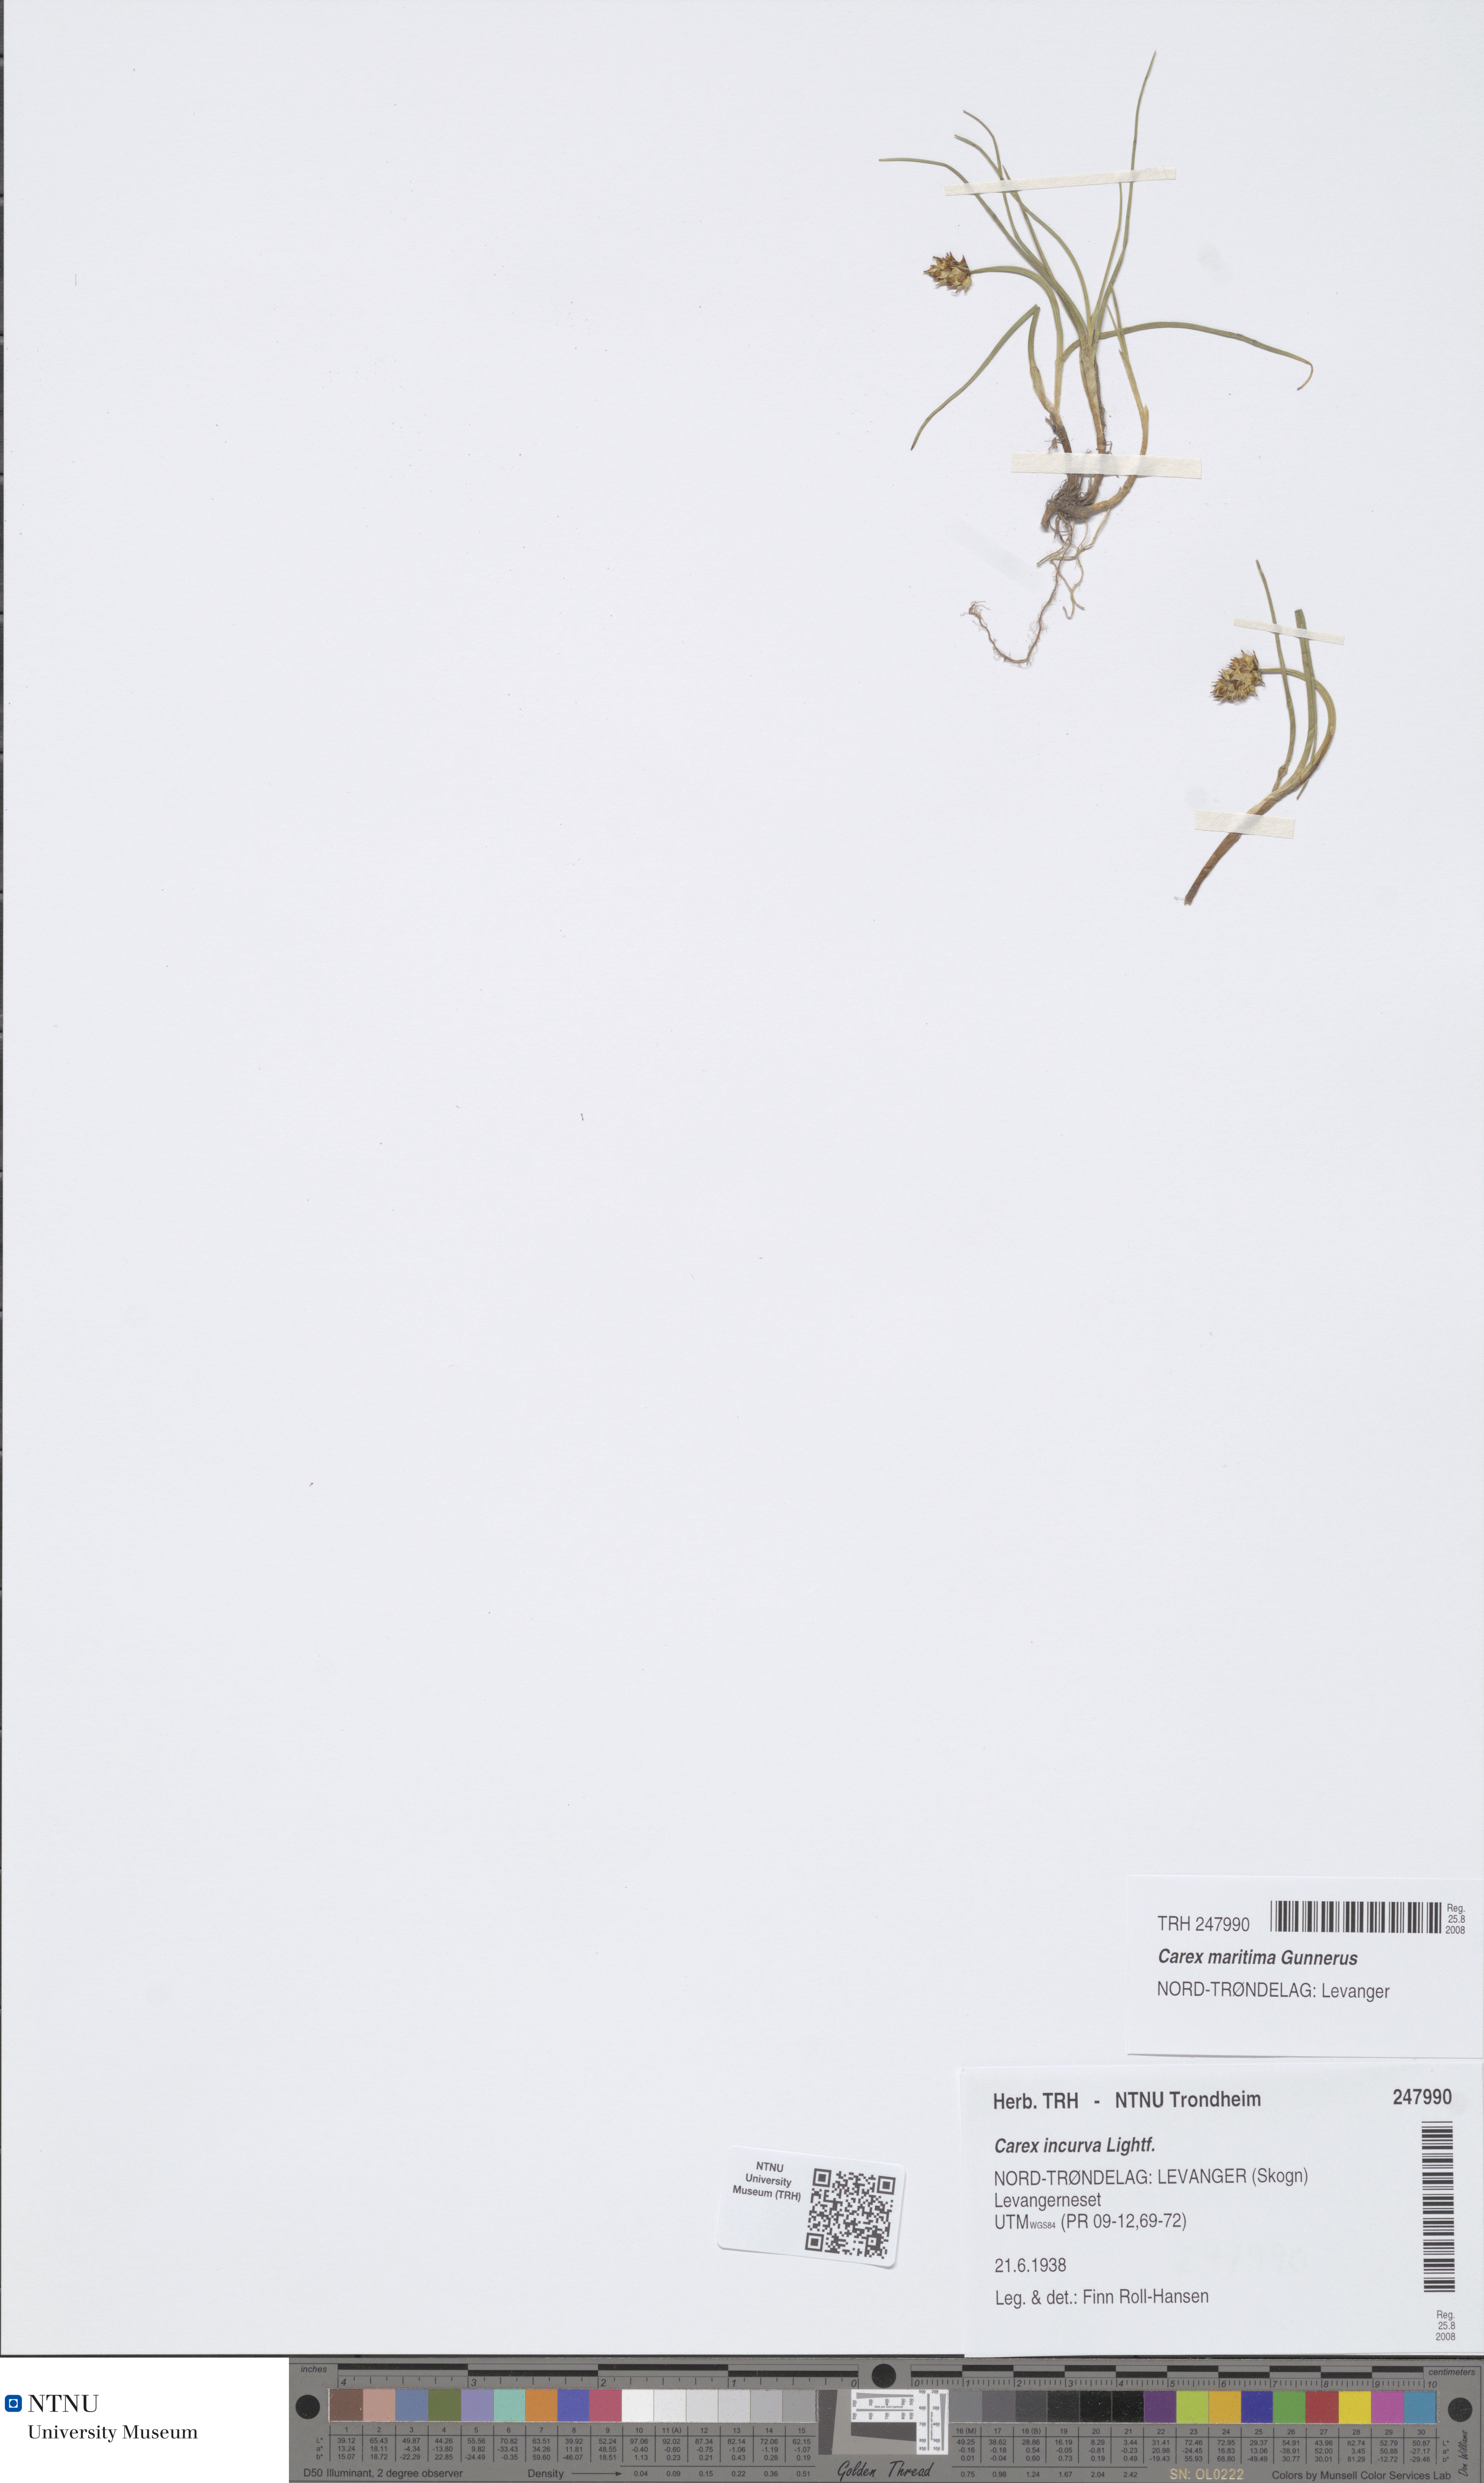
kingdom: Plantae
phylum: Tracheophyta
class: Liliopsida
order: Poales
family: Cyperaceae
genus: Carex
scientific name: Carex maritima
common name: Curved sedge
